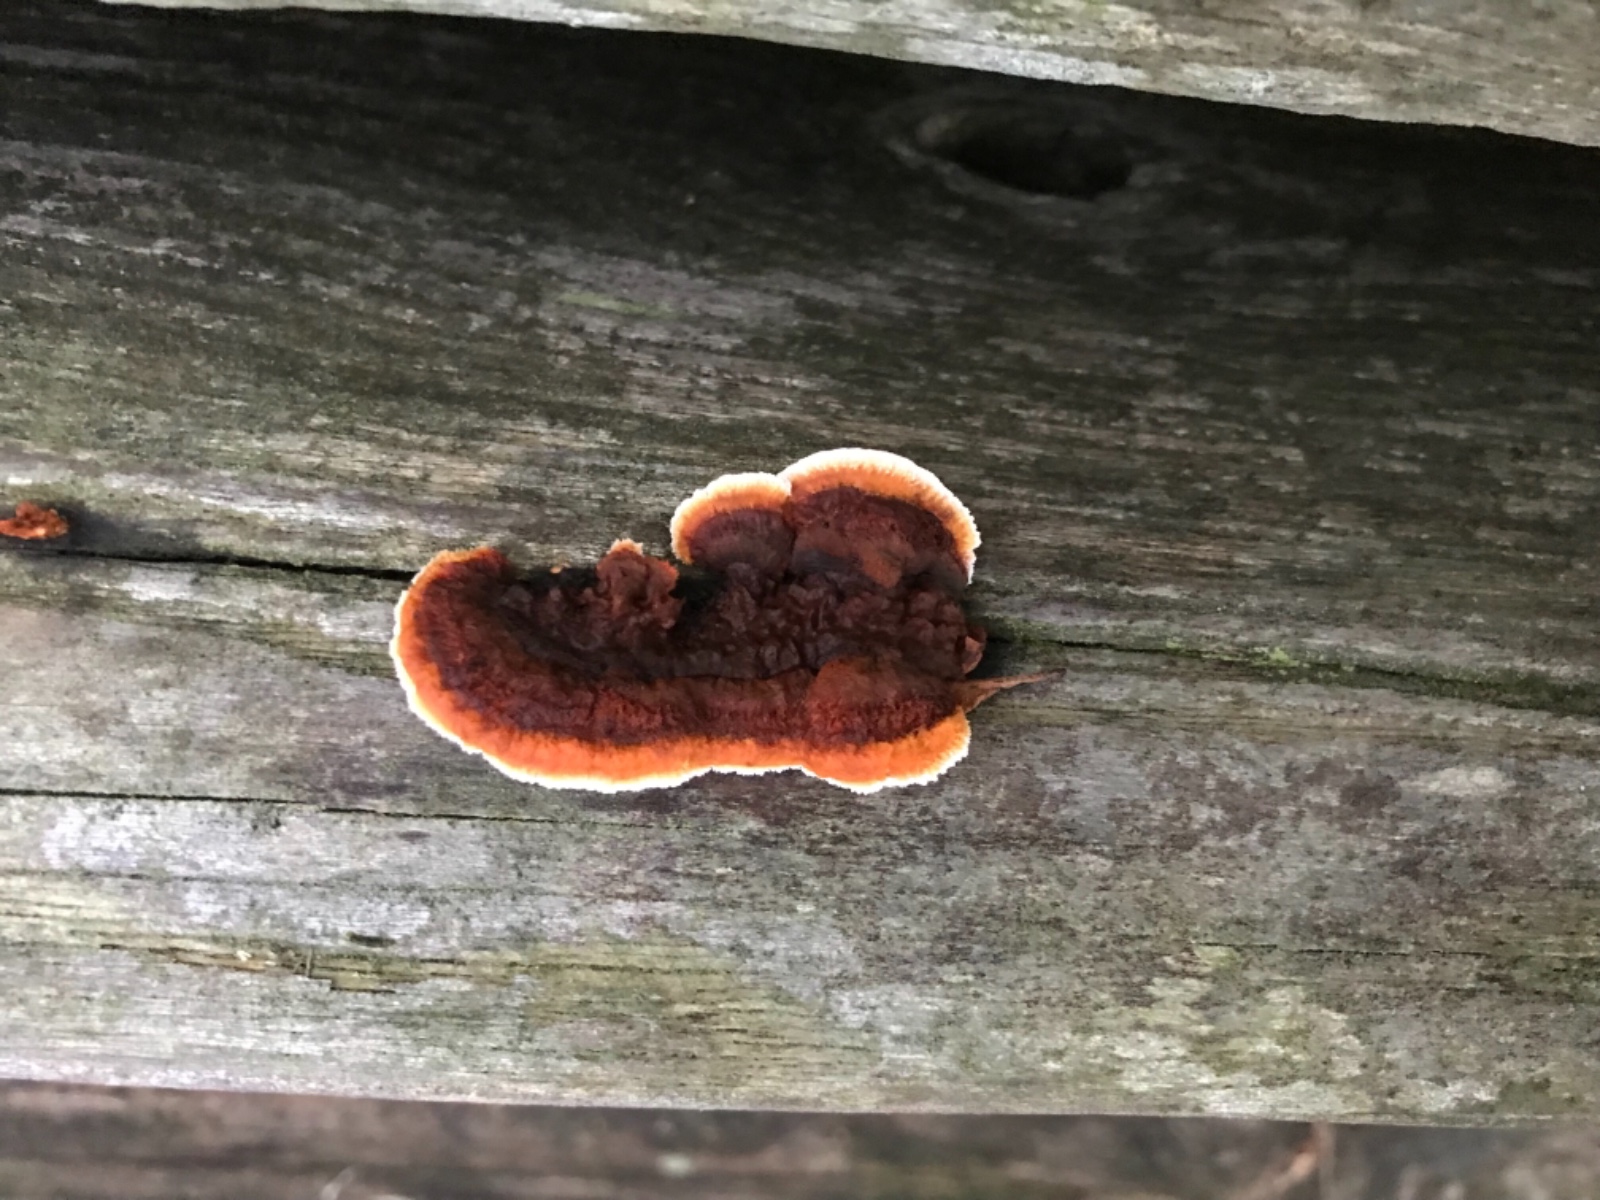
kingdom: Fungi
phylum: Basidiomycota
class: Agaricomycetes
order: Gloeophyllales
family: Gloeophyllaceae
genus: Gloeophyllum
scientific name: Gloeophyllum sepiarium
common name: fyrre-korkhat
